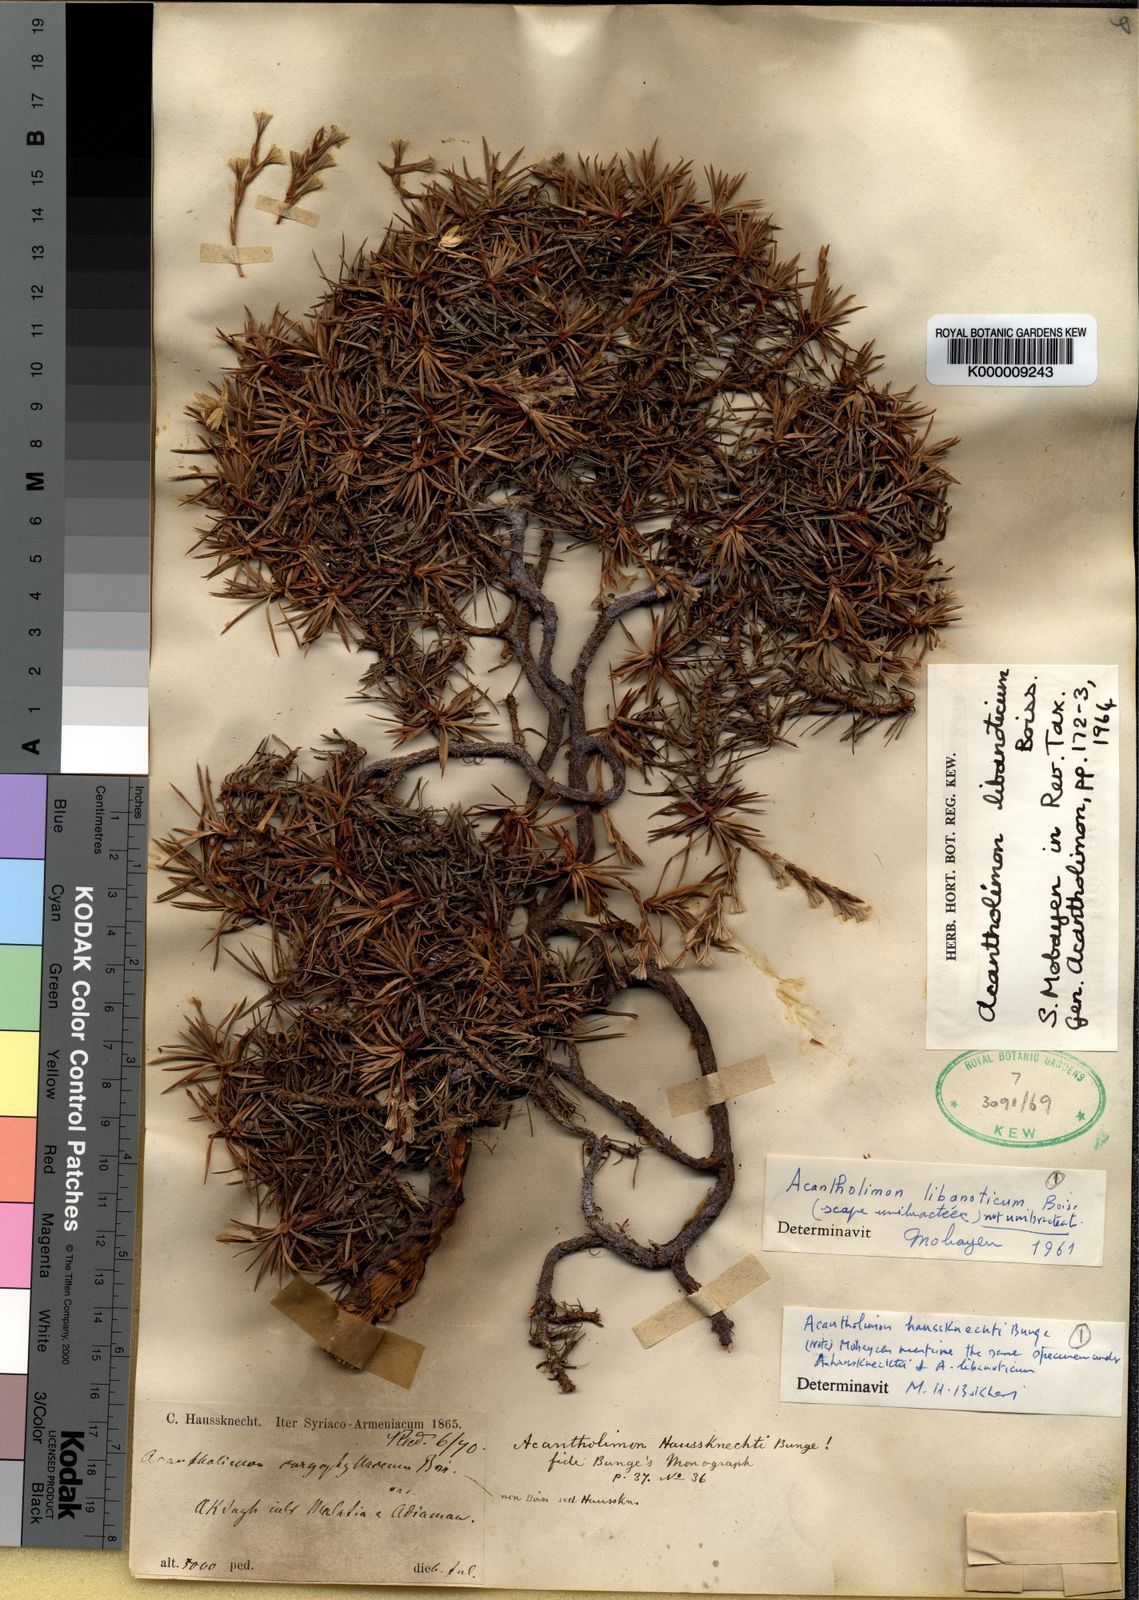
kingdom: Plantae
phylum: Tracheophyta
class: Magnoliopsida
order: Caryophyllales
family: Plumbaginaceae
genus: Acantholimon
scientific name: Acantholimon libanoticum
